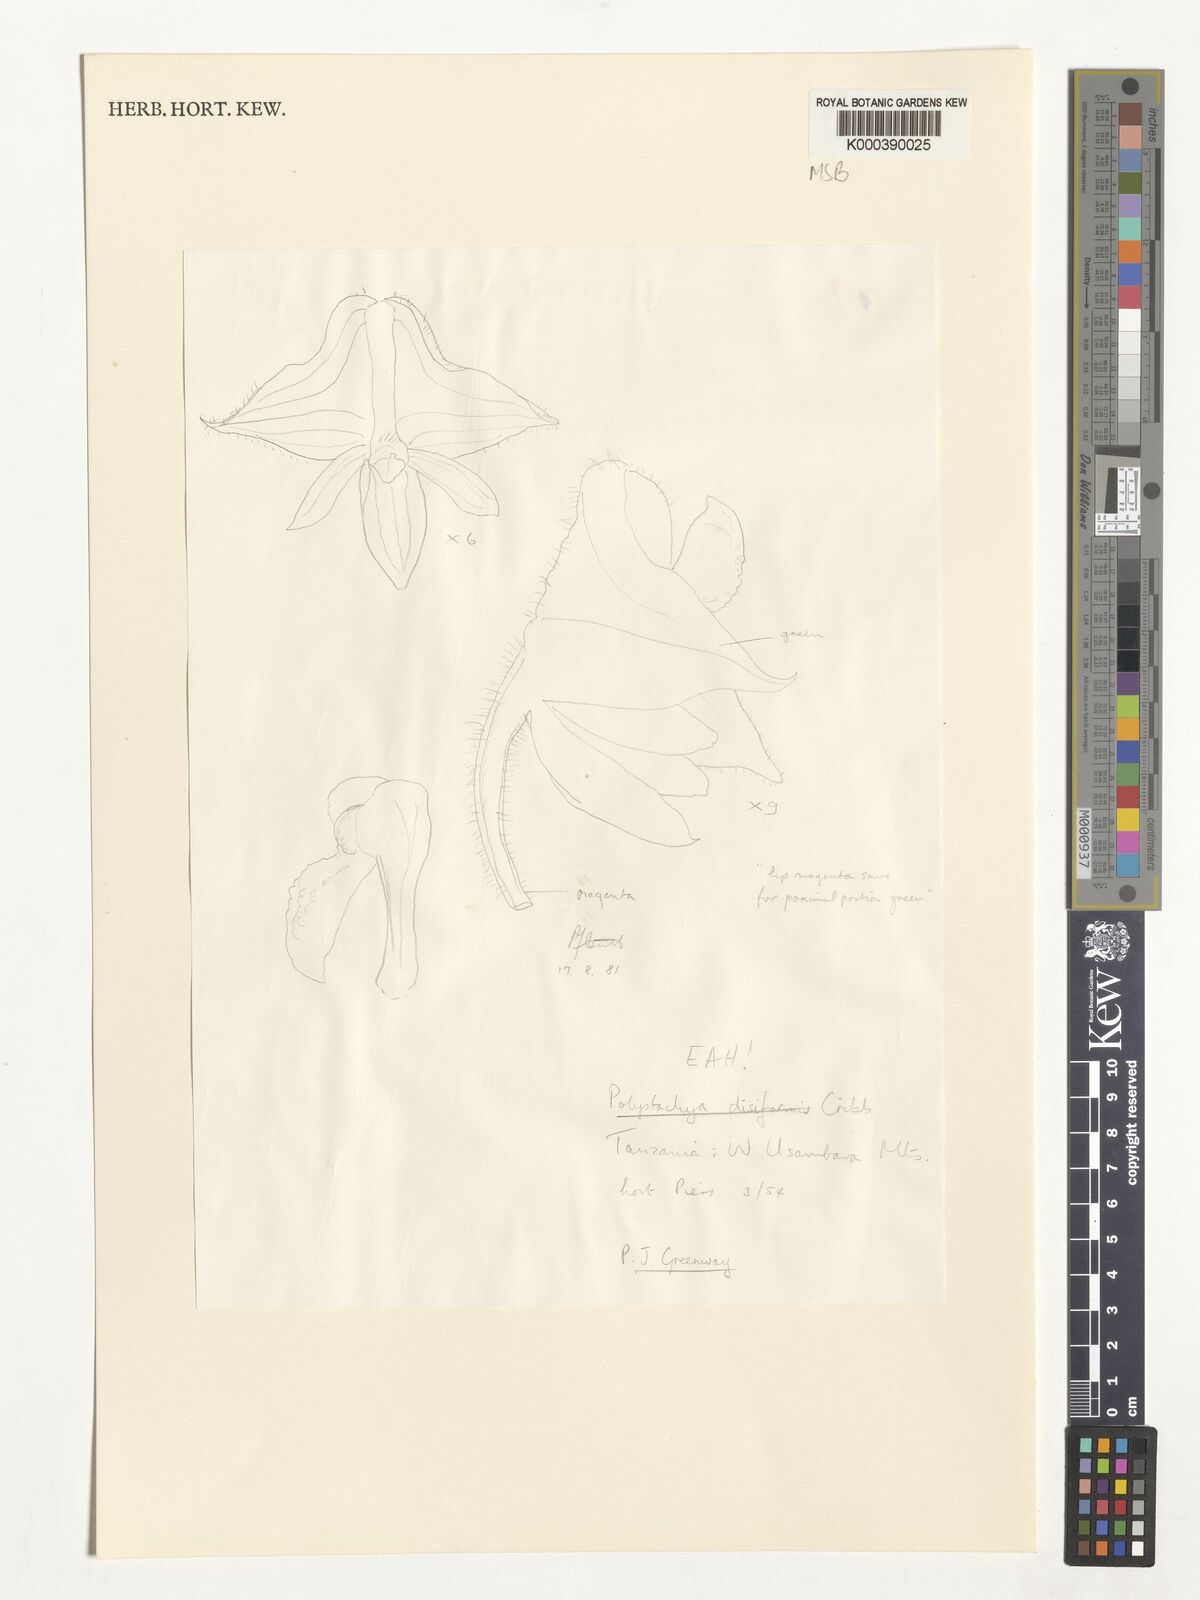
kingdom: Plantae
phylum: Tracheophyta
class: Liliopsida
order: Asparagales
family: Orchidaceae
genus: Polystachya
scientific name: Polystachya disiformis
